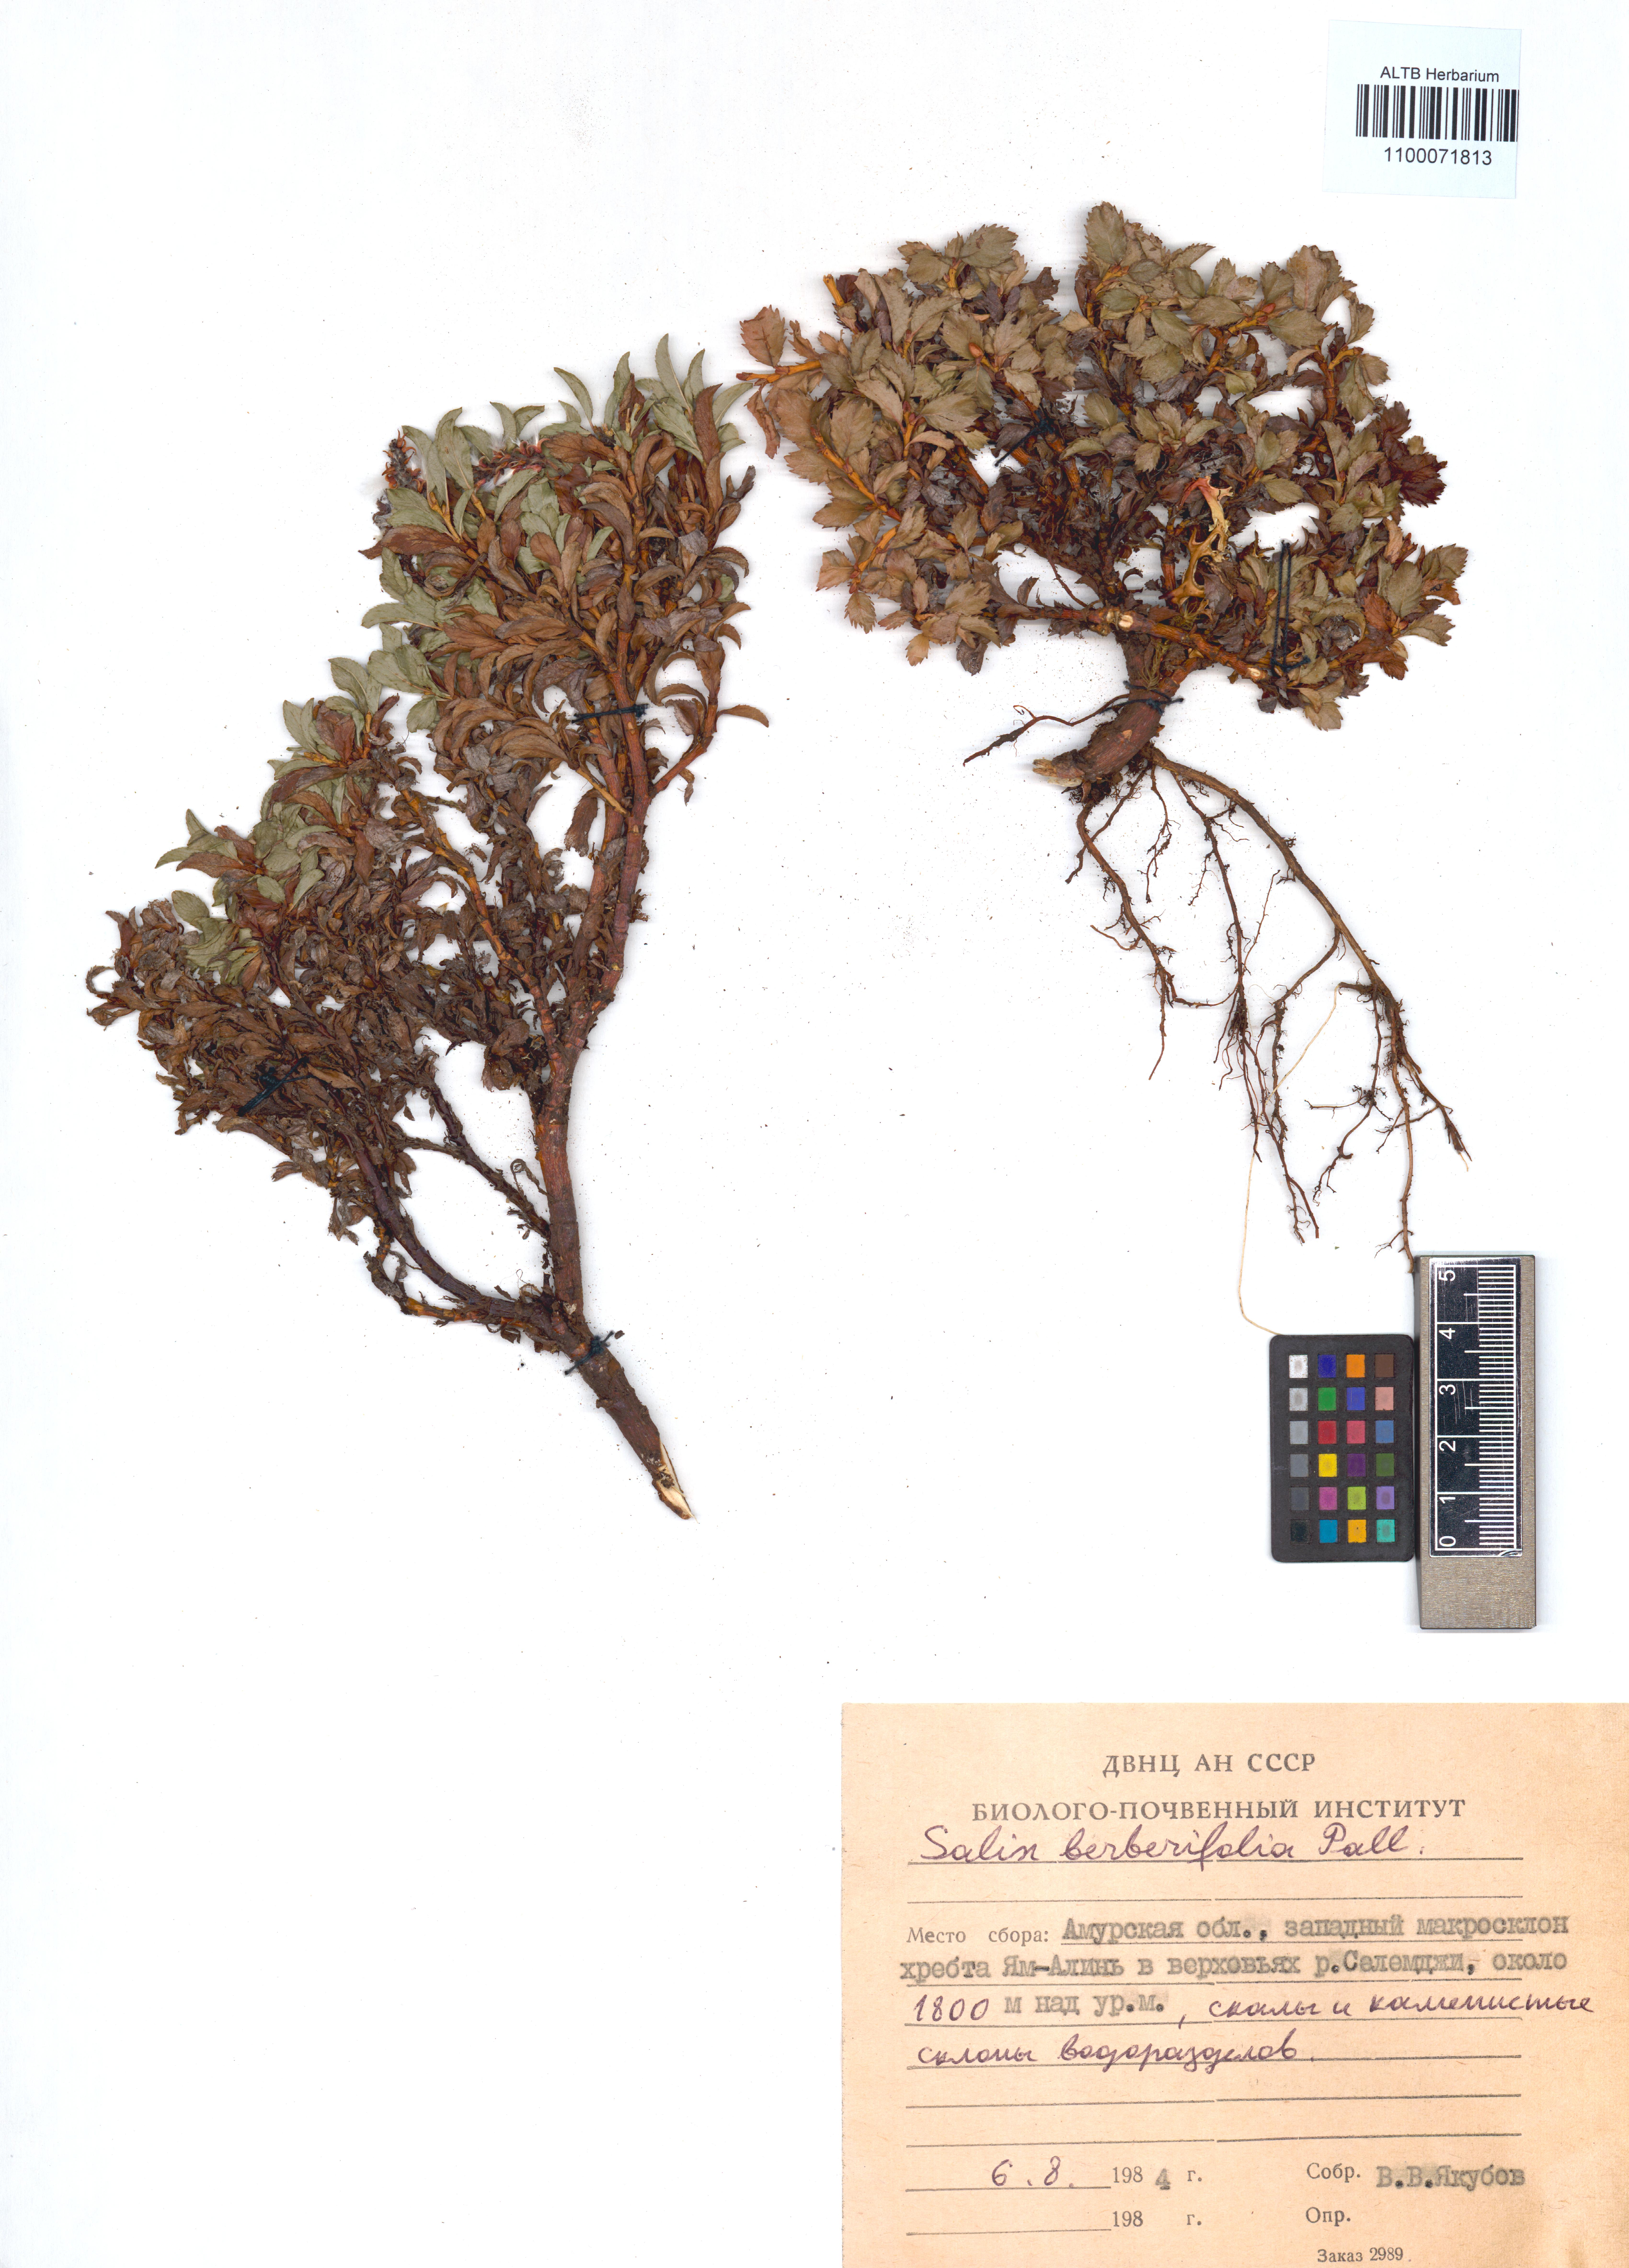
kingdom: Plantae
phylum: Tracheophyta
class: Magnoliopsida
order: Malpighiales
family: Salicaceae
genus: Salix
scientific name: Salix berberifolia
